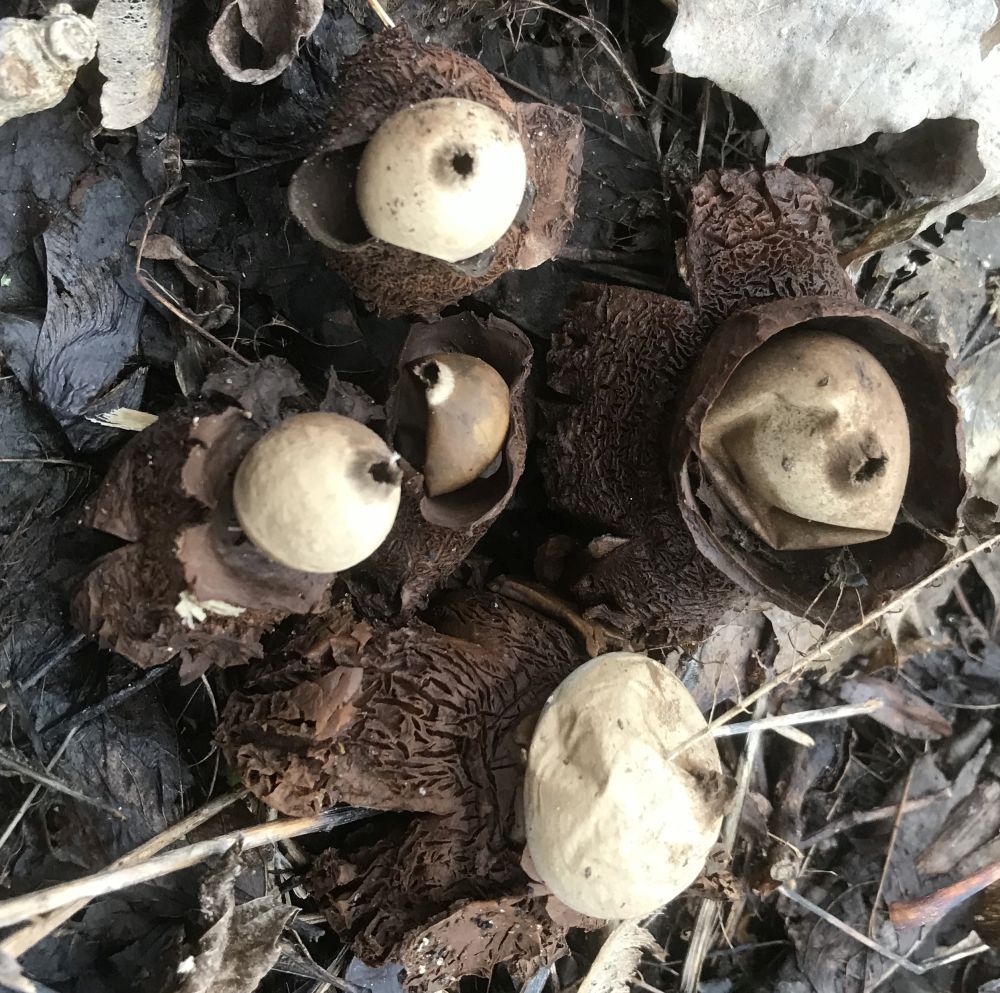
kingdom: Fungi
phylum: Basidiomycota
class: Agaricomycetes
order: Geastrales
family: Geastraceae
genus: Geastrum
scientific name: Geastrum michelianum
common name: kødet stjernebold
